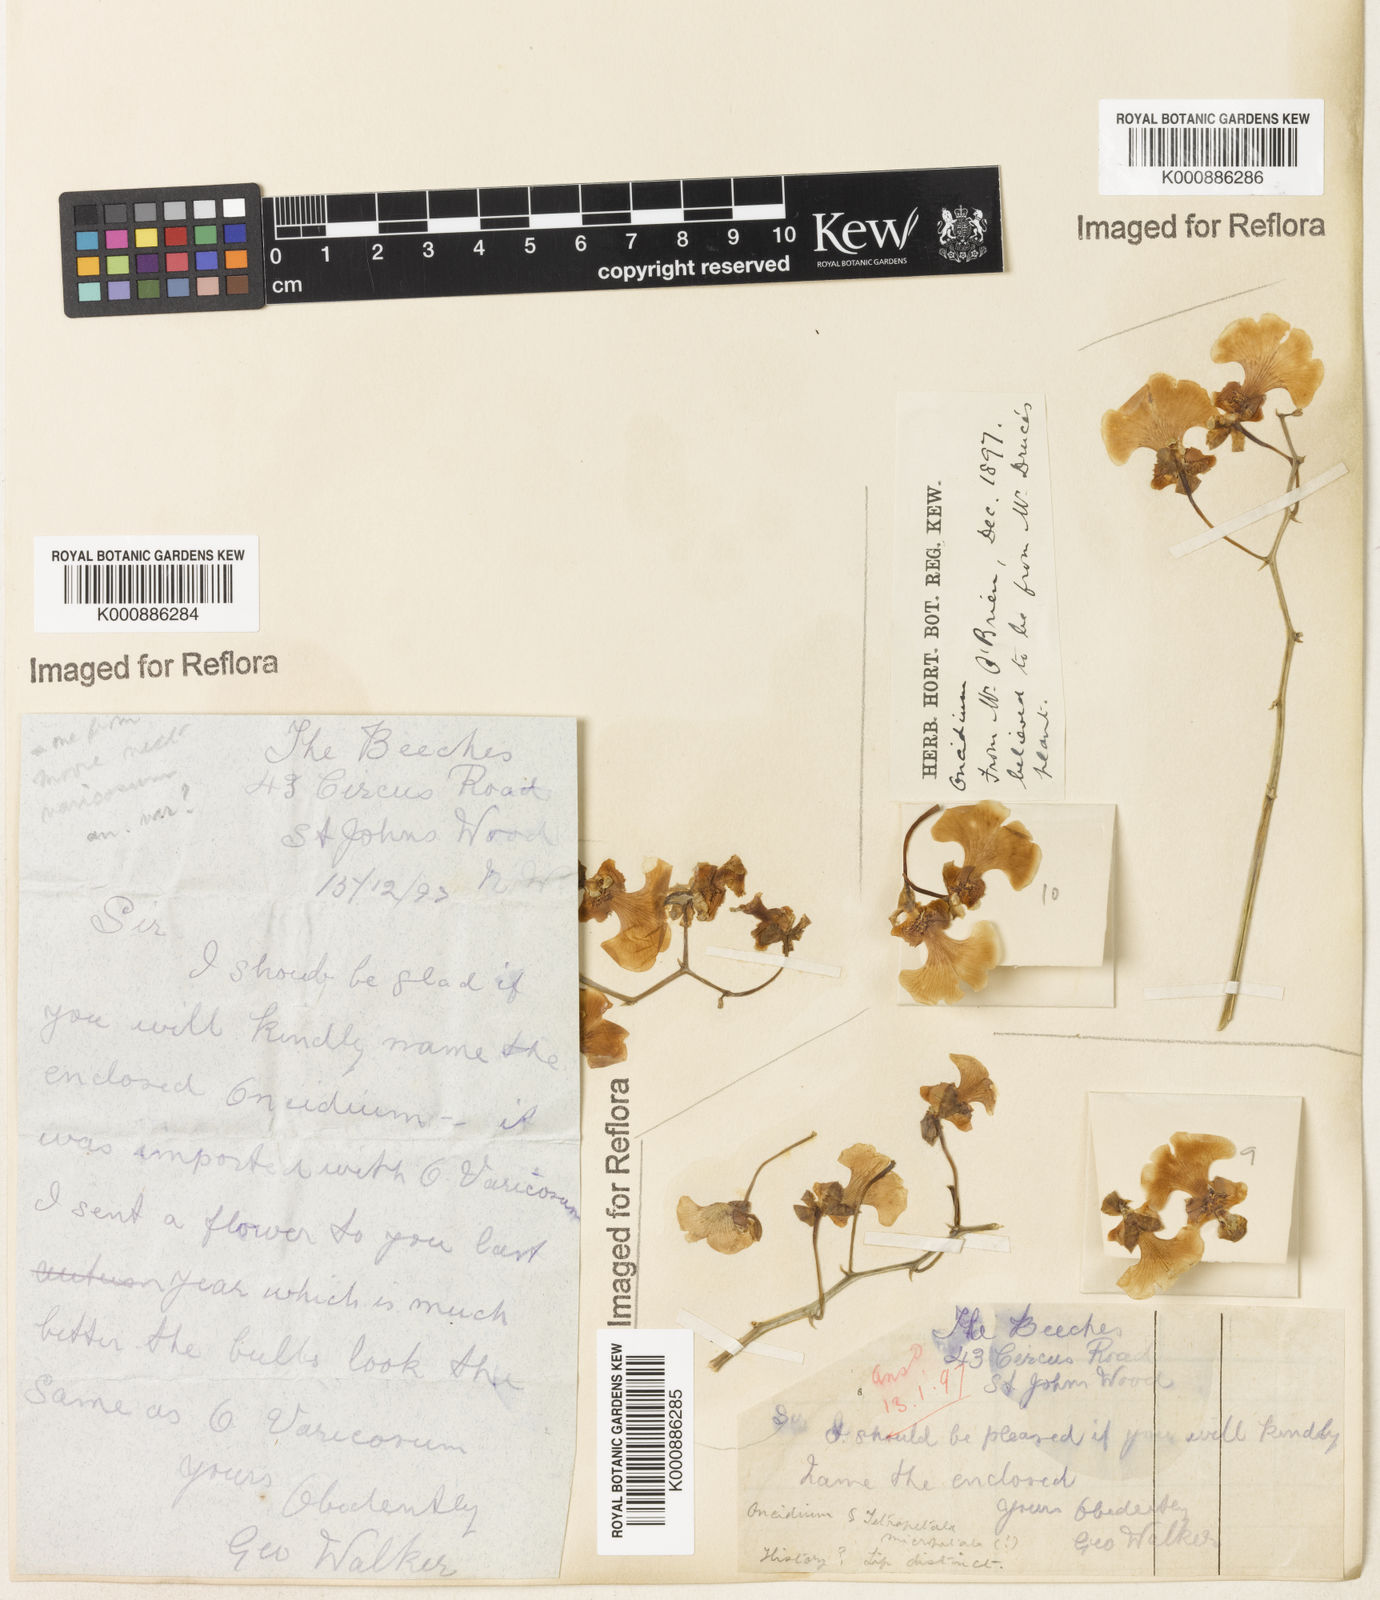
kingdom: Plantae
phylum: Tracheophyta
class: Liliopsida
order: Asparagales
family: Orchidaceae
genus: Gomesa
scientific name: Gomesa varicosa
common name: Dancing ladies
